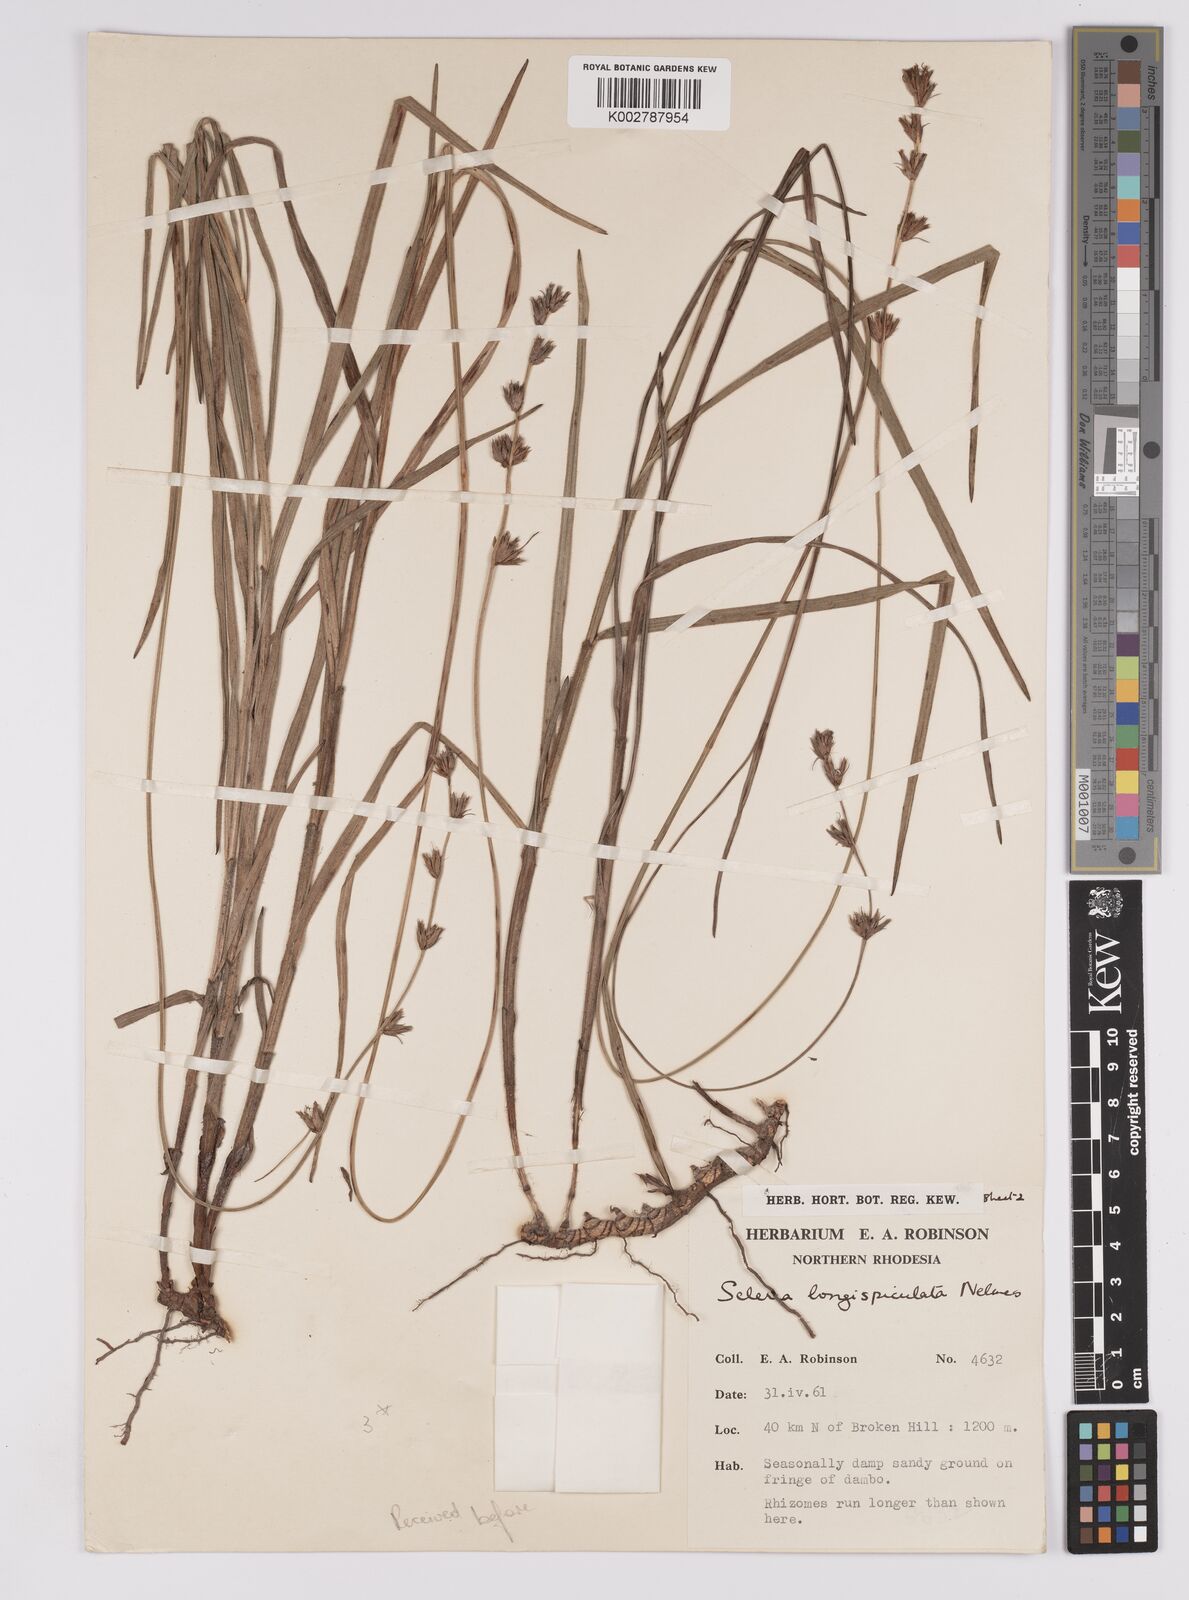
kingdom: Plantae
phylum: Tracheophyta
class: Liliopsida
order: Poales
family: Cyperaceae
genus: Scleria
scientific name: Scleria longispiculata
